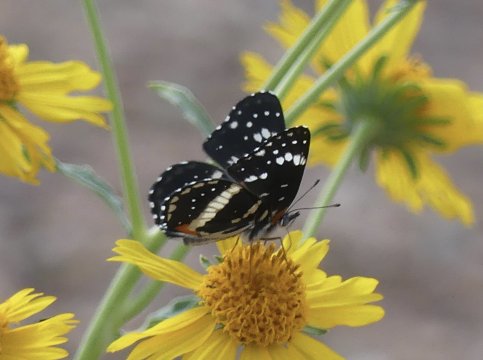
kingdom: Animalia
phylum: Arthropoda
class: Insecta
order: Lepidoptera
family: Nymphalidae
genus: Chlosyne
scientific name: Chlosyne lacinia
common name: Bordered Patch
